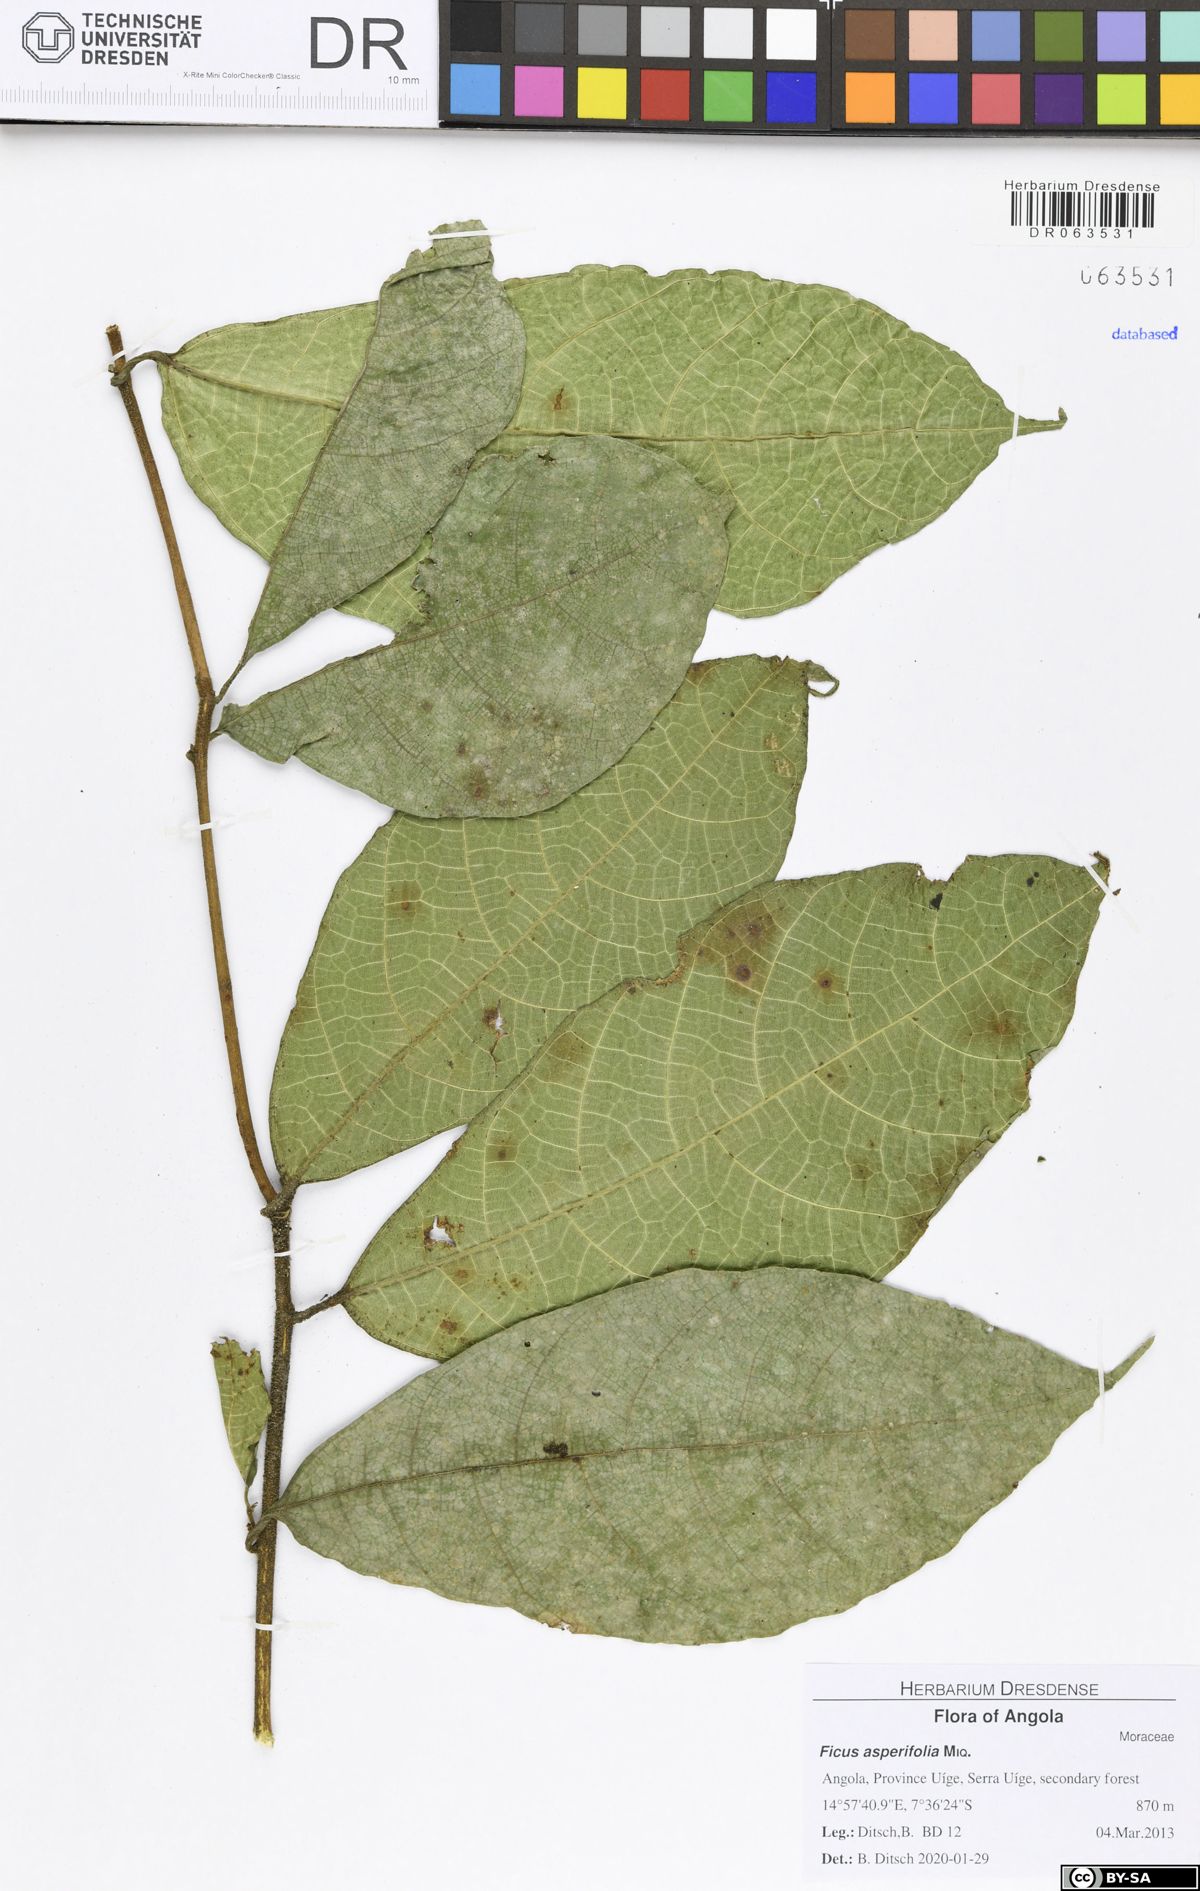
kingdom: Plantae
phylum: Tracheophyta
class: Magnoliopsida
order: Rosales
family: Moraceae
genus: Ficus
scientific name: Ficus asperifolia
